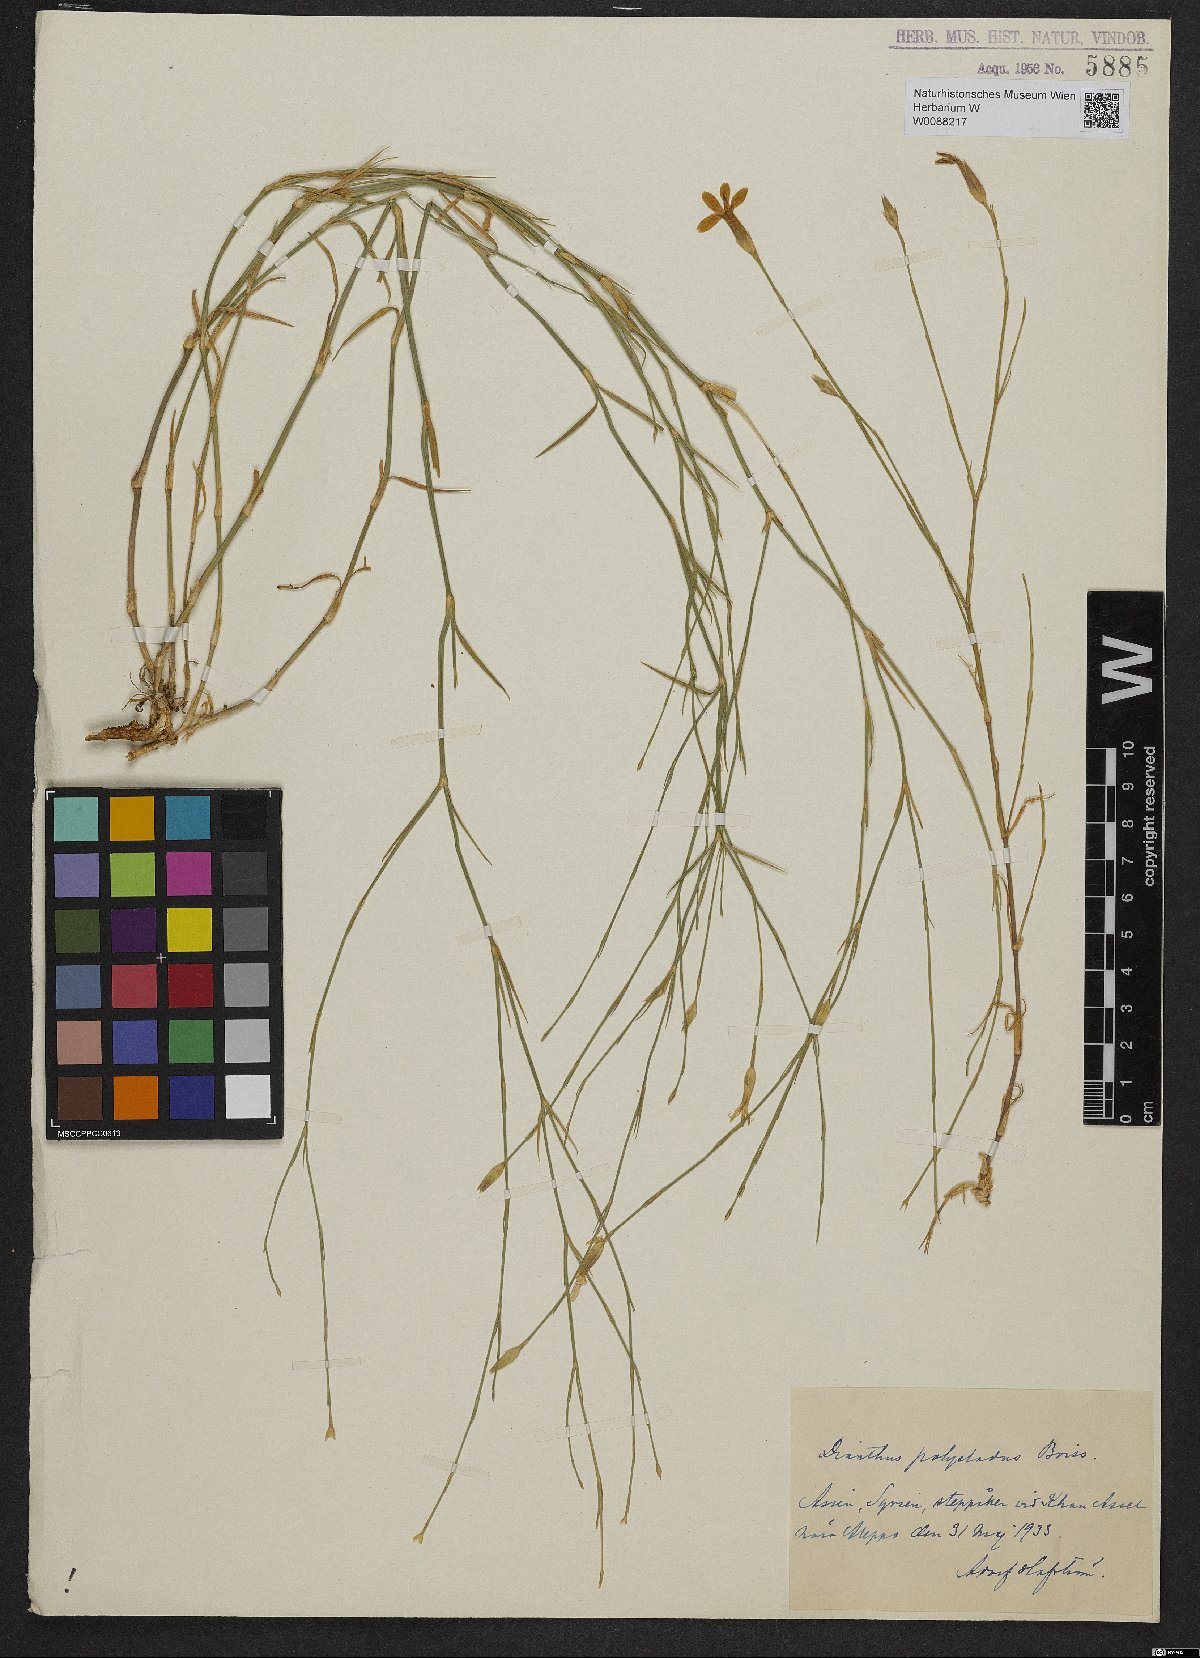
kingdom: Plantae
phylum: Tracheophyta
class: Magnoliopsida
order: Caryophyllales
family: Caryophyllaceae
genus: Dianthus
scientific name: Dianthus strictus
